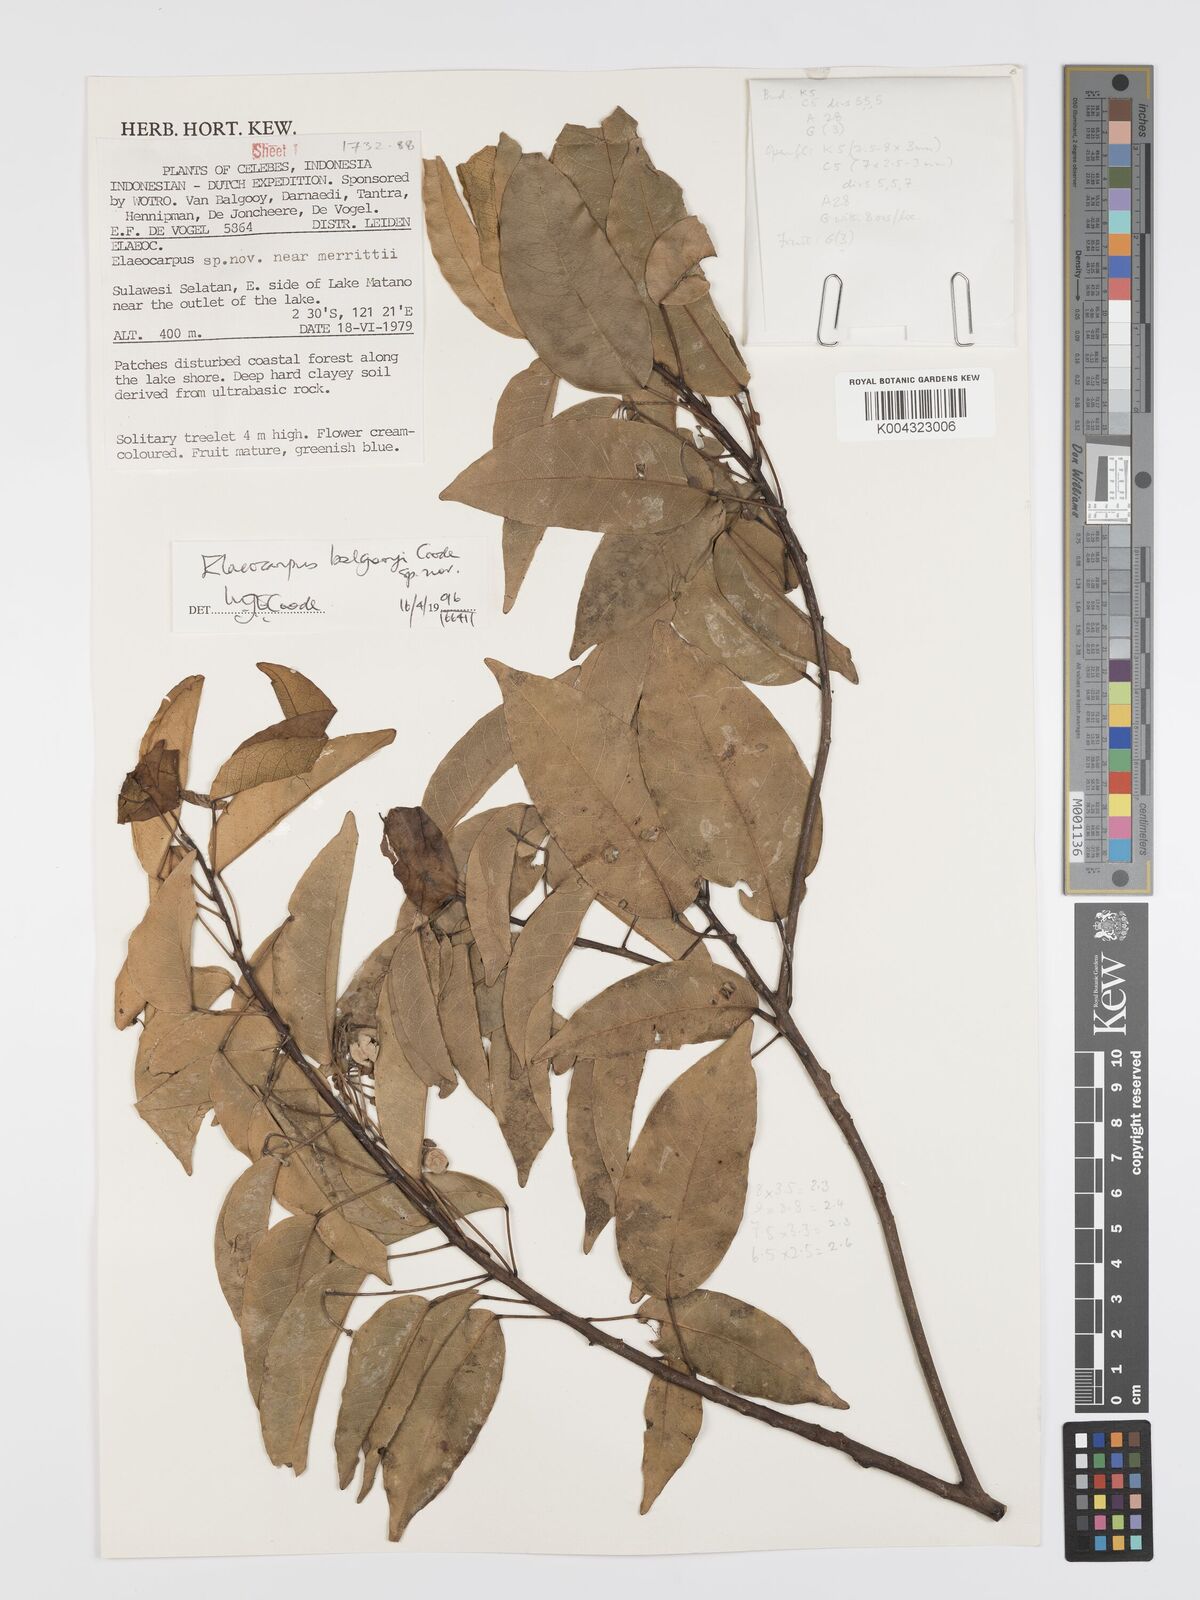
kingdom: Plantae
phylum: Tracheophyta
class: Magnoliopsida
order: Oxalidales
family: Elaeocarpaceae
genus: Elaeocarpus
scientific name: Elaeocarpus balgooyi
